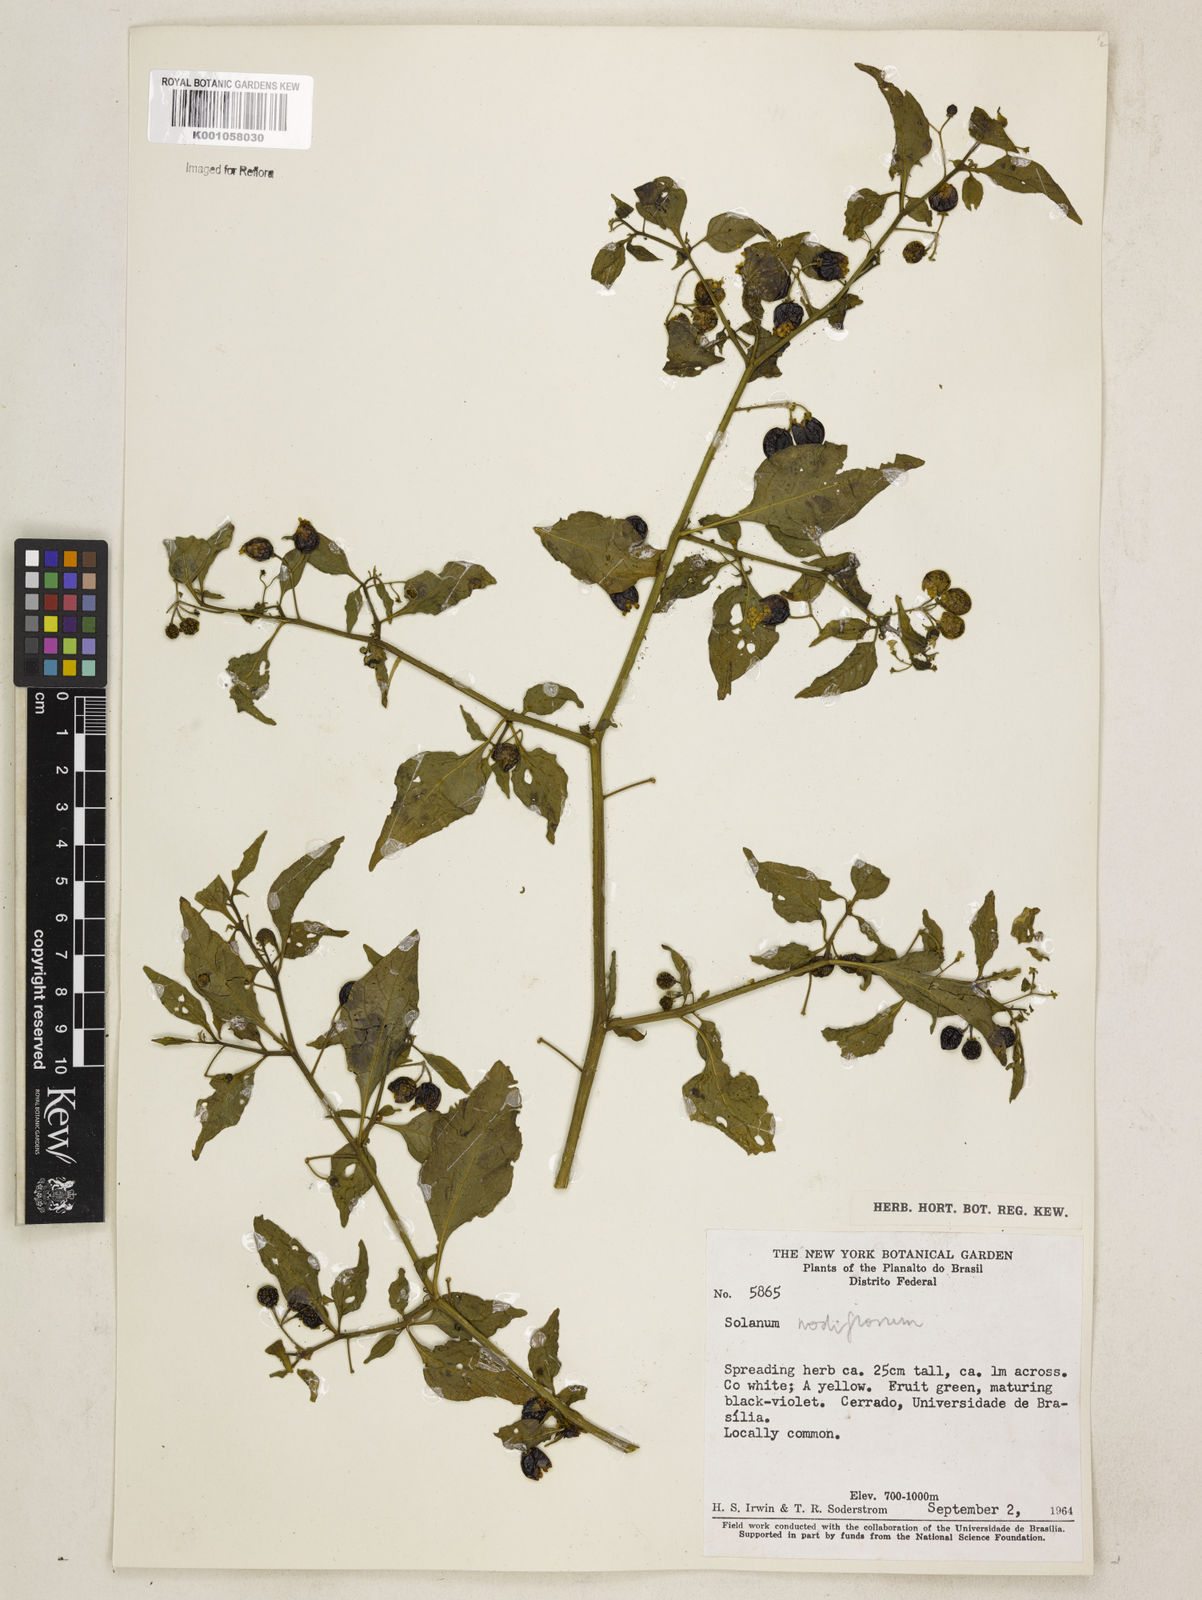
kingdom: Plantae
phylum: Tracheophyta
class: Magnoliopsida
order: Solanales
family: Solanaceae
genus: Solanum
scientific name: Solanum americanum
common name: American black nightshade
